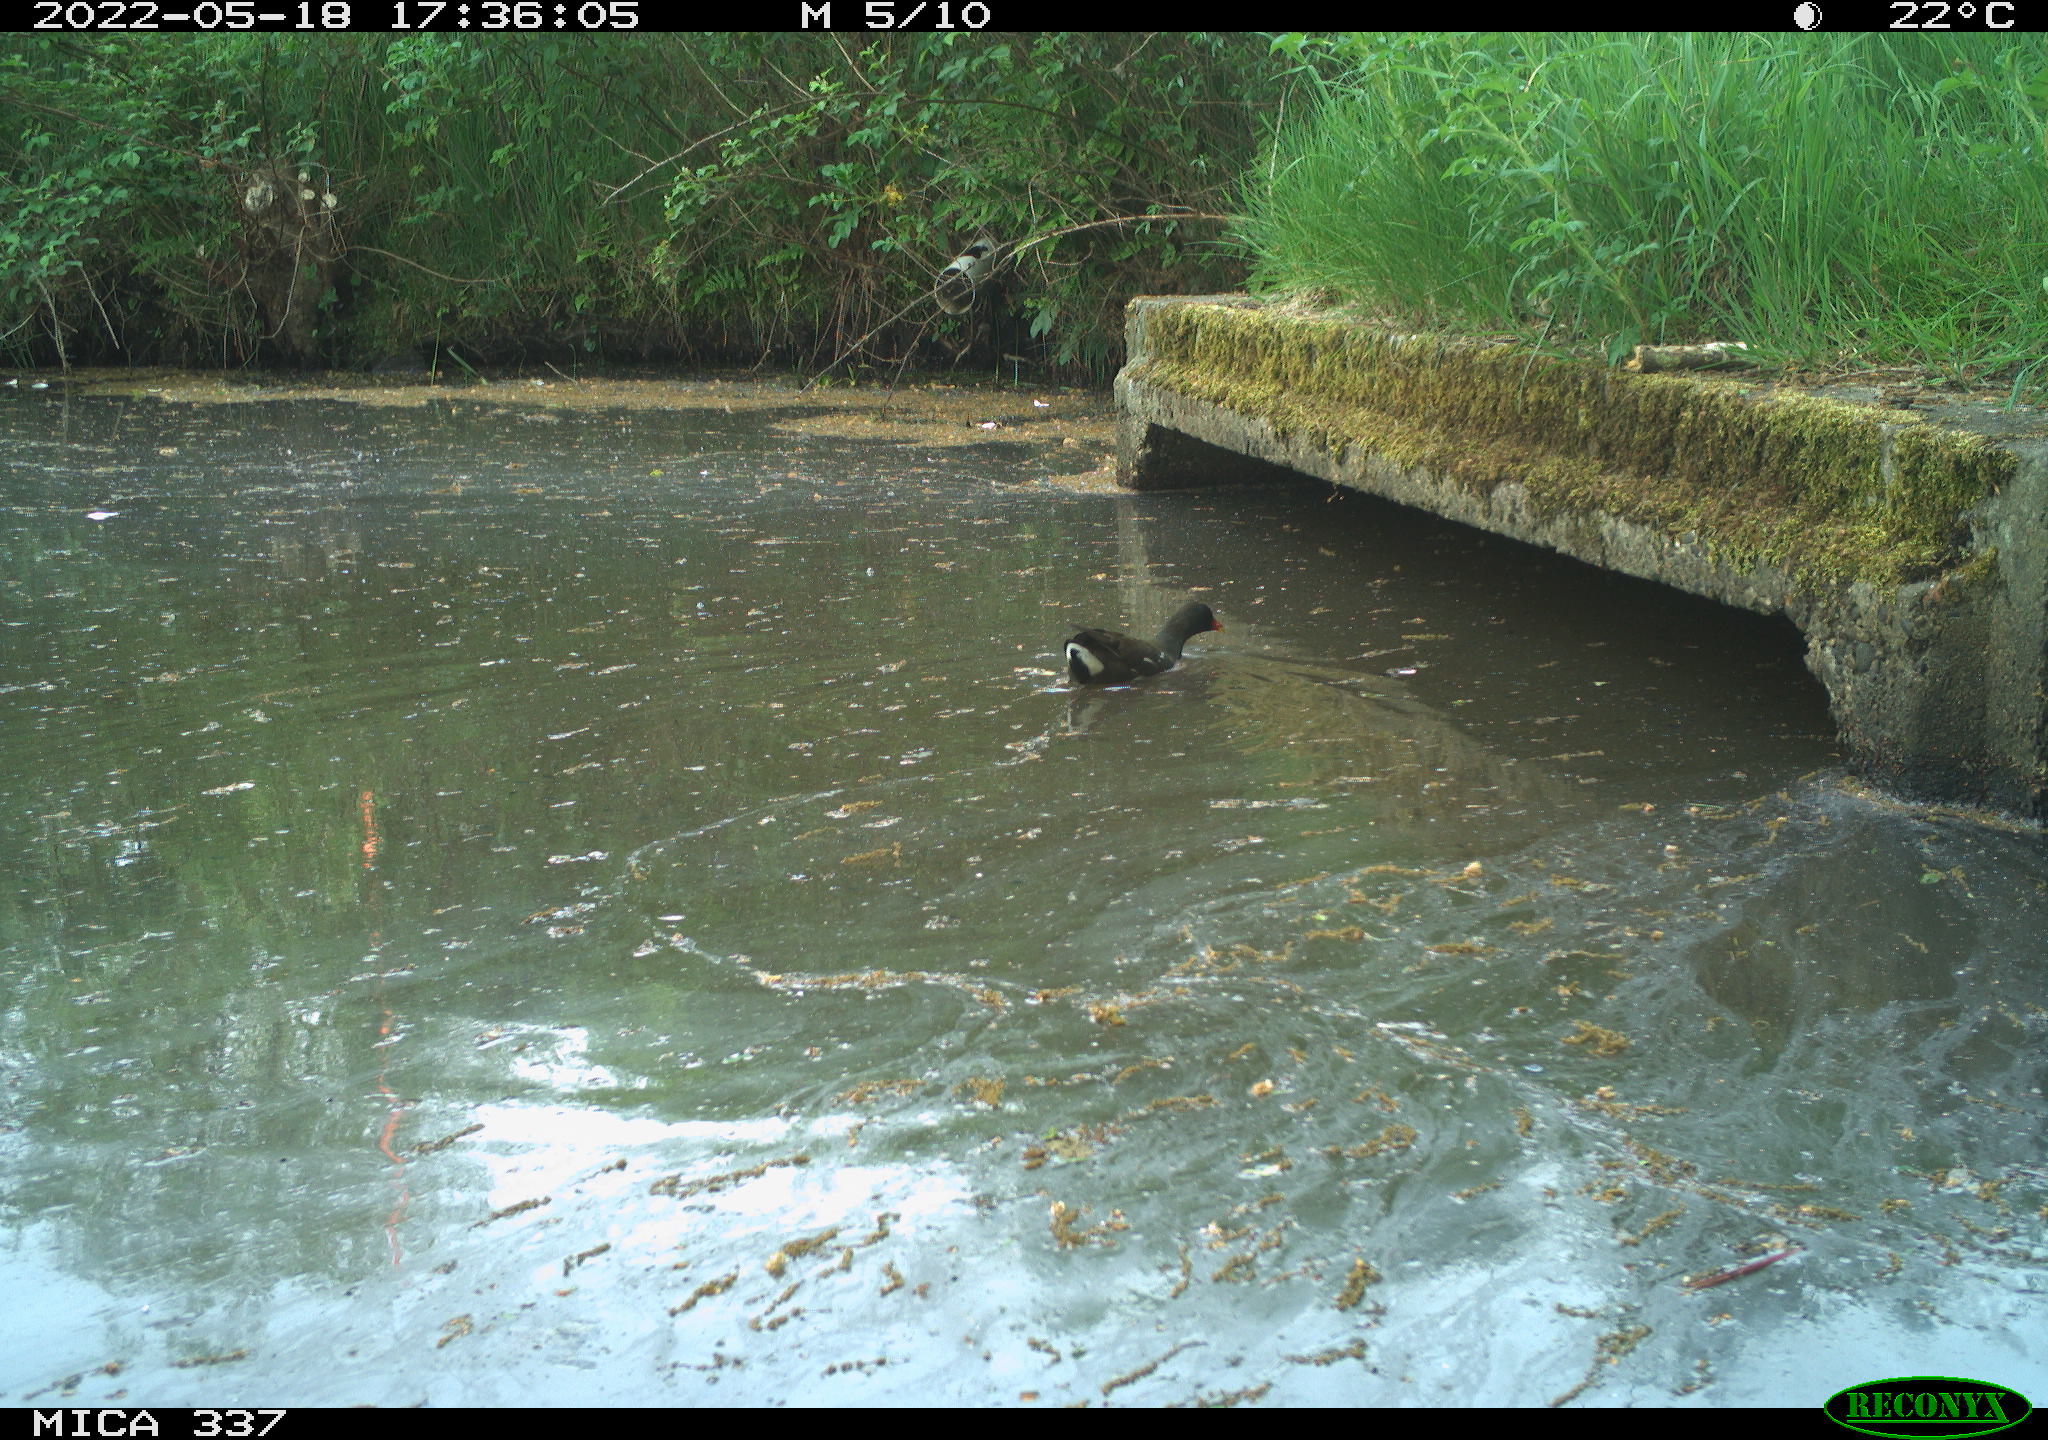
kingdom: Animalia
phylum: Chordata
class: Aves
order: Gruiformes
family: Rallidae
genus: Gallinula
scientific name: Gallinula chloropus
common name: Common moorhen
